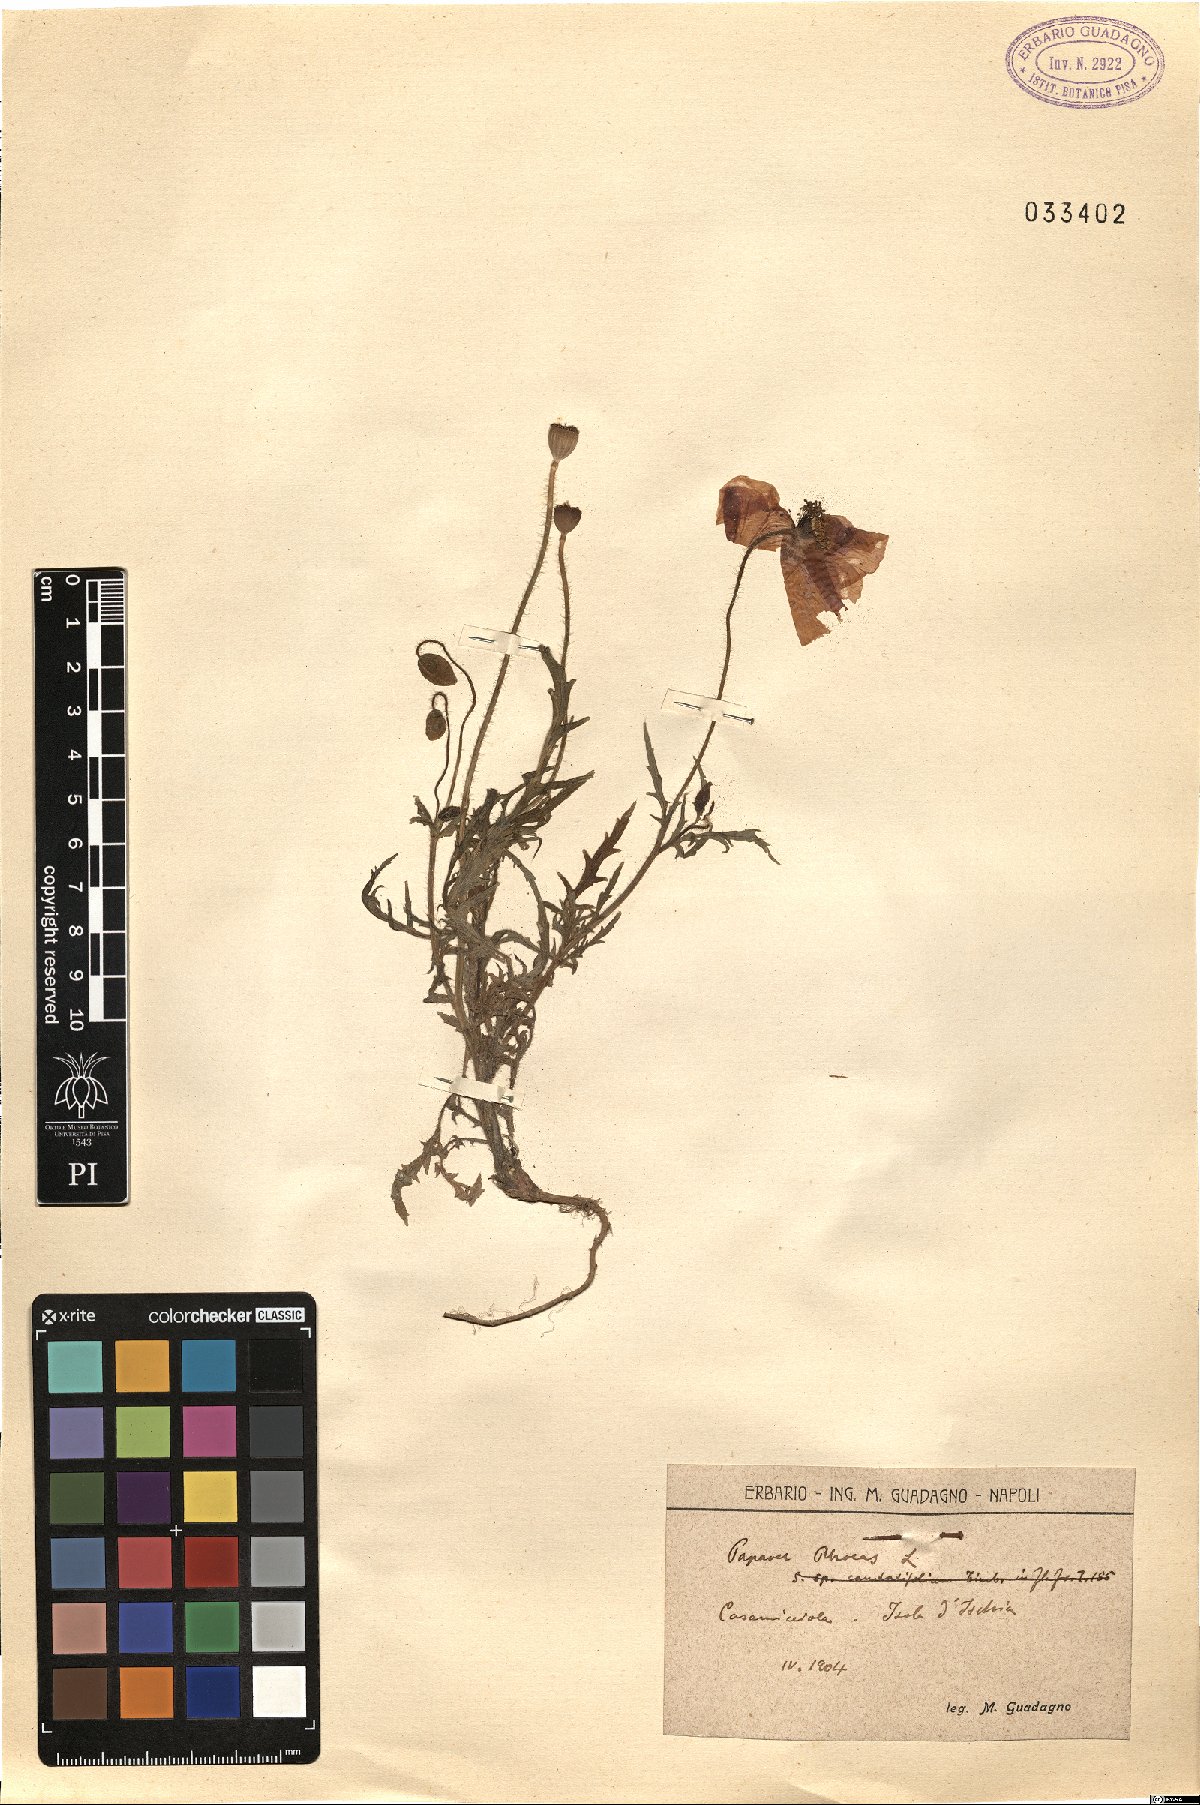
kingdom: Plantae
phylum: Tracheophyta
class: Magnoliopsida
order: Ranunculales
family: Papaveraceae
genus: Papaver
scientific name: Papaver rhoeas
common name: Corn poppy
